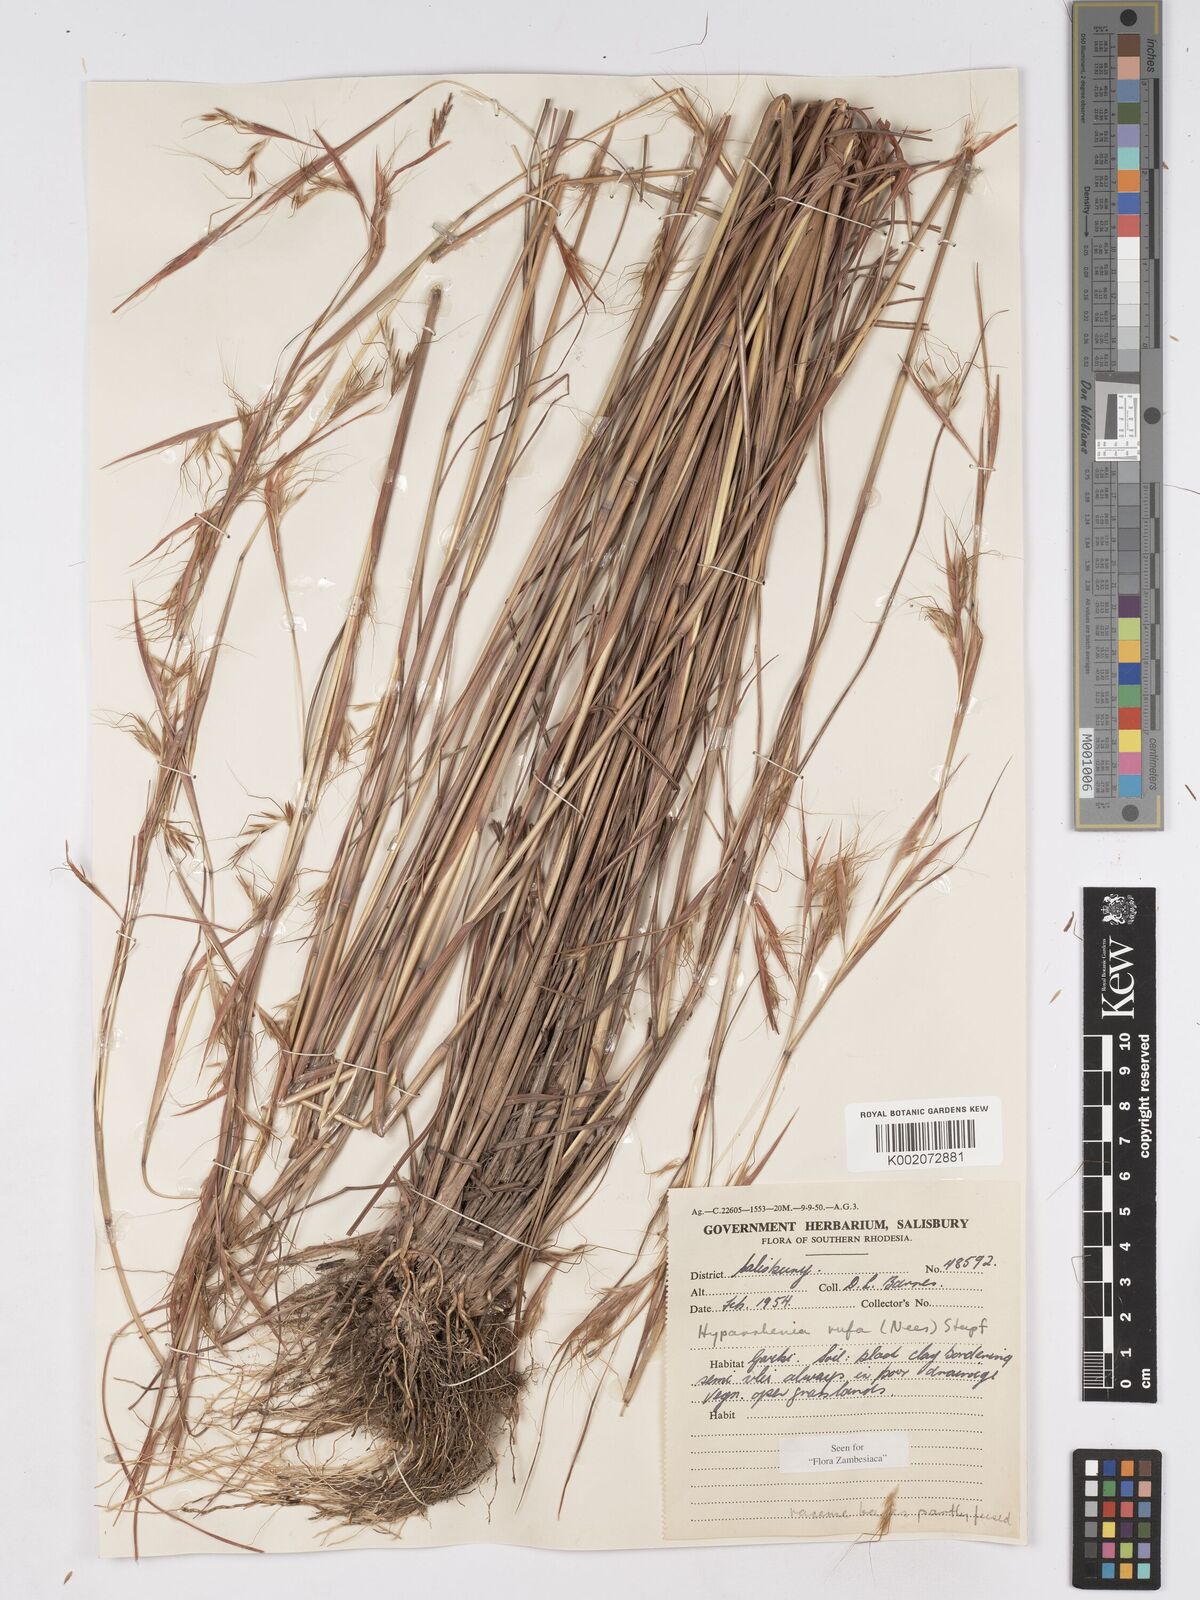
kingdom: Plantae
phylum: Tracheophyta
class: Liliopsida
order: Poales
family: Poaceae
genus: Hyparrhenia
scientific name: Hyparrhenia rufa
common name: Jaraguagrass
